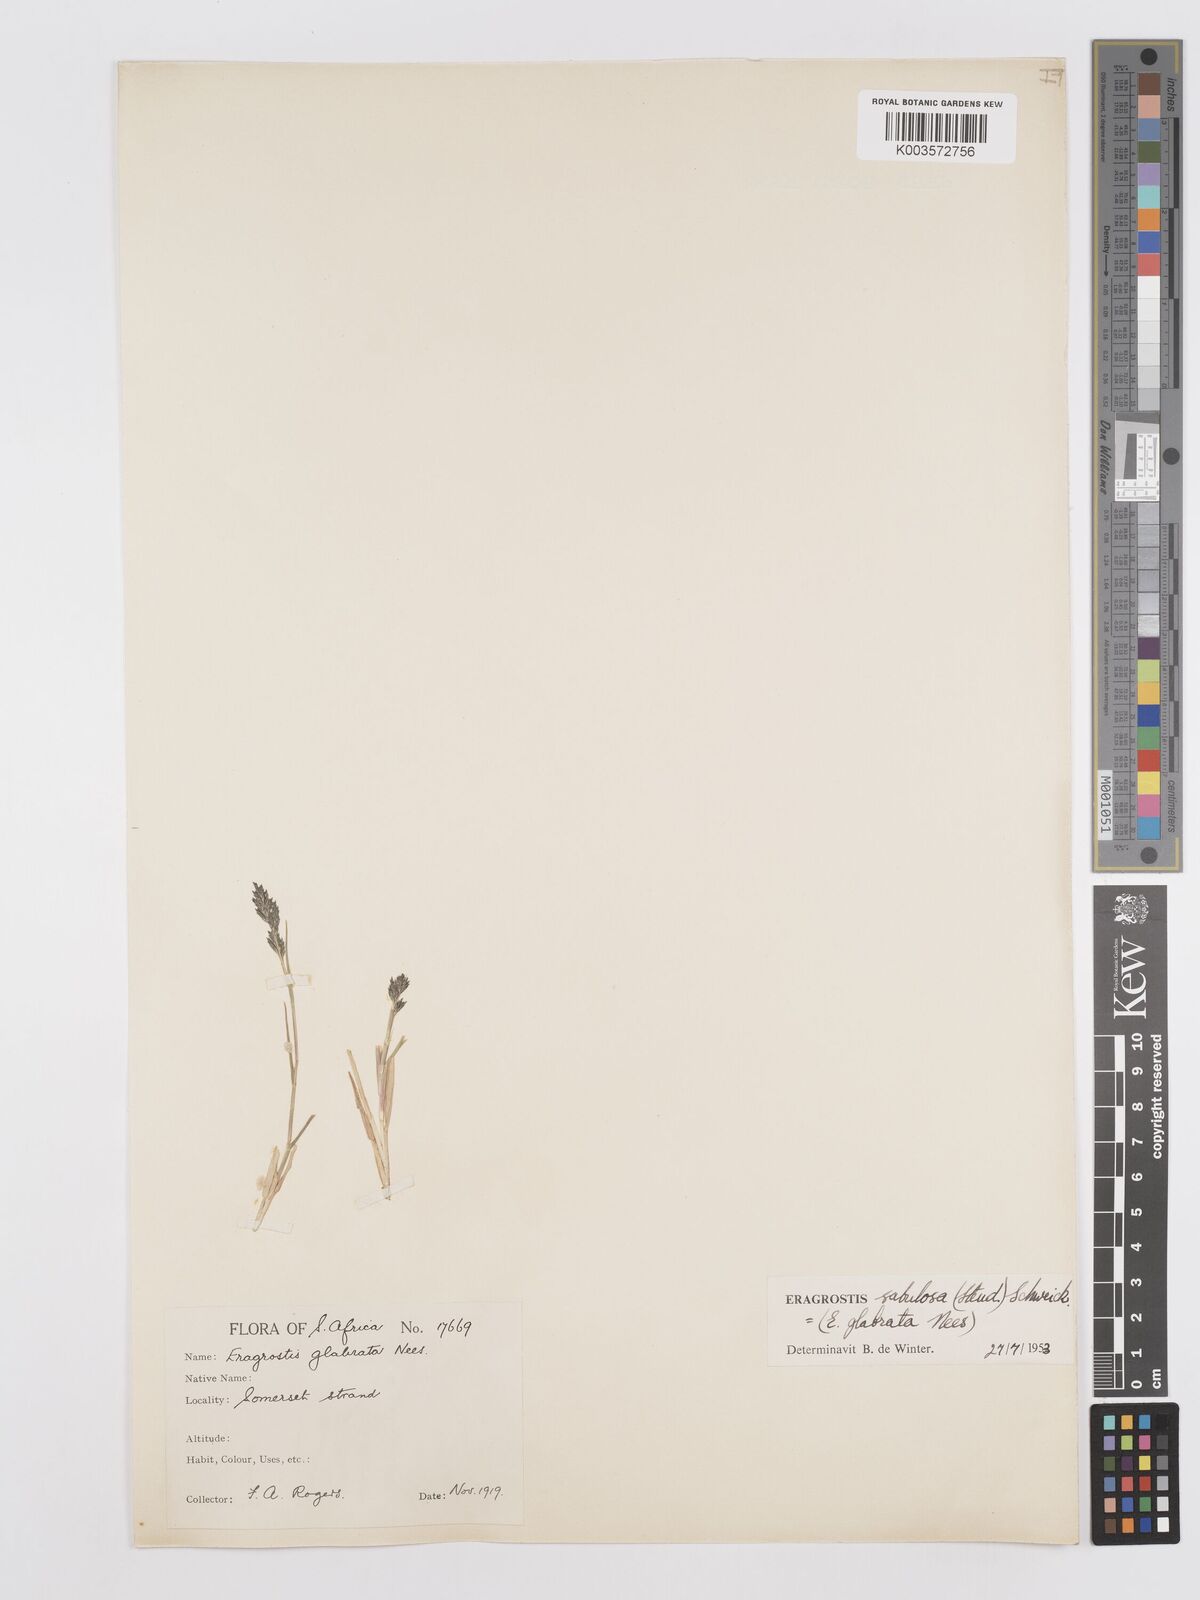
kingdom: Plantae
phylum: Tracheophyta
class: Liliopsida
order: Poales
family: Poaceae
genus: Eragrostis
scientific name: Eragrostis sabulosa
